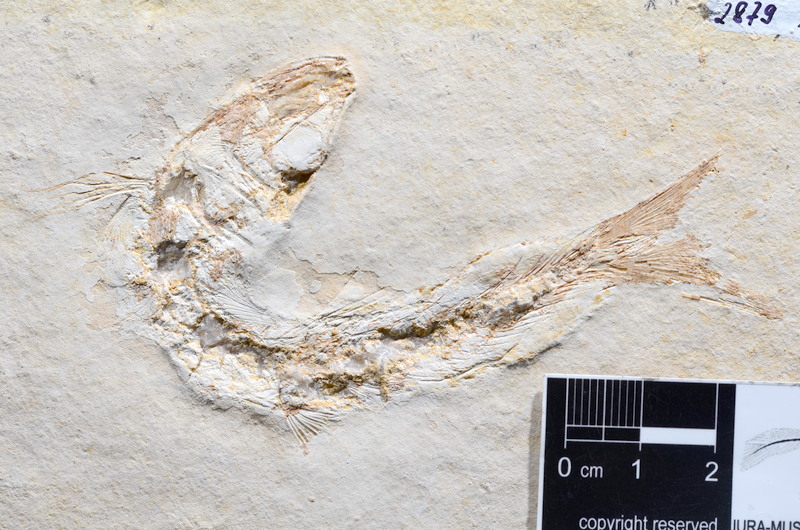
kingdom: Animalia
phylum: Chordata
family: Ascalaboidae
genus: Tharsis
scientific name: Tharsis dubius
